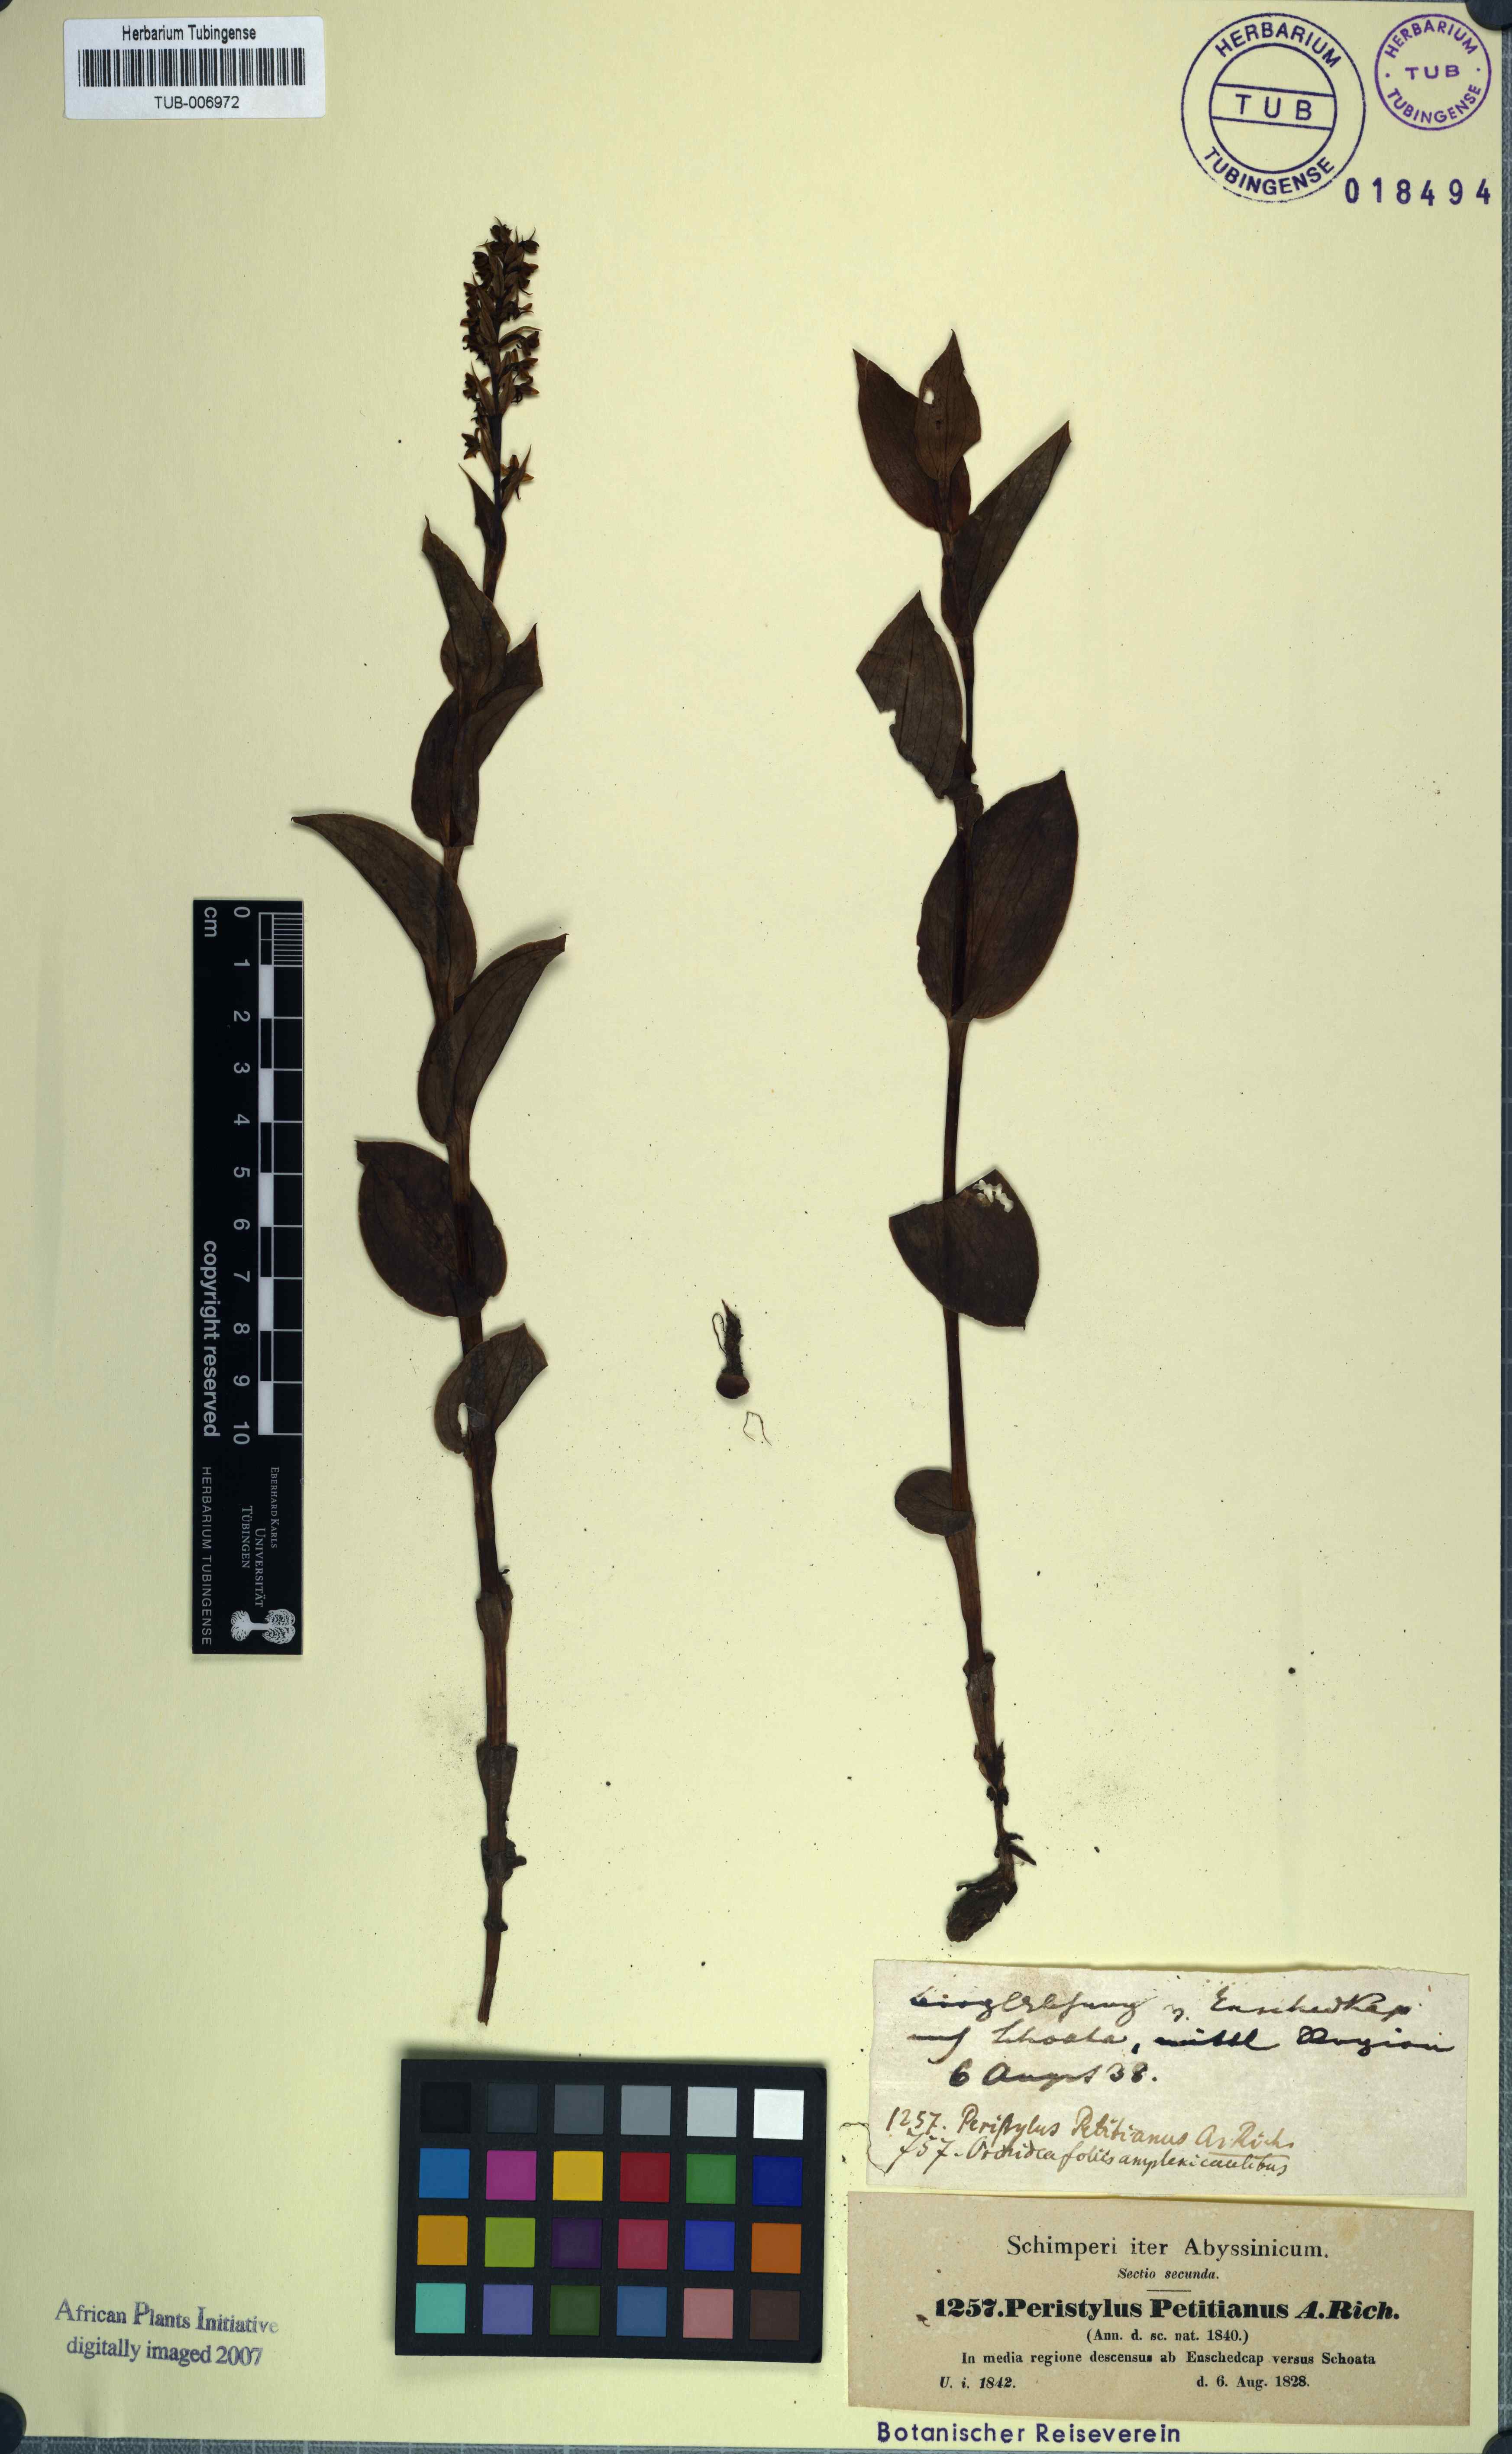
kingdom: Plantae
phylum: Tracheophyta
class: Liliopsida
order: Asparagales
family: Orchidaceae
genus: Habenaria
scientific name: Habenaria petitiana
